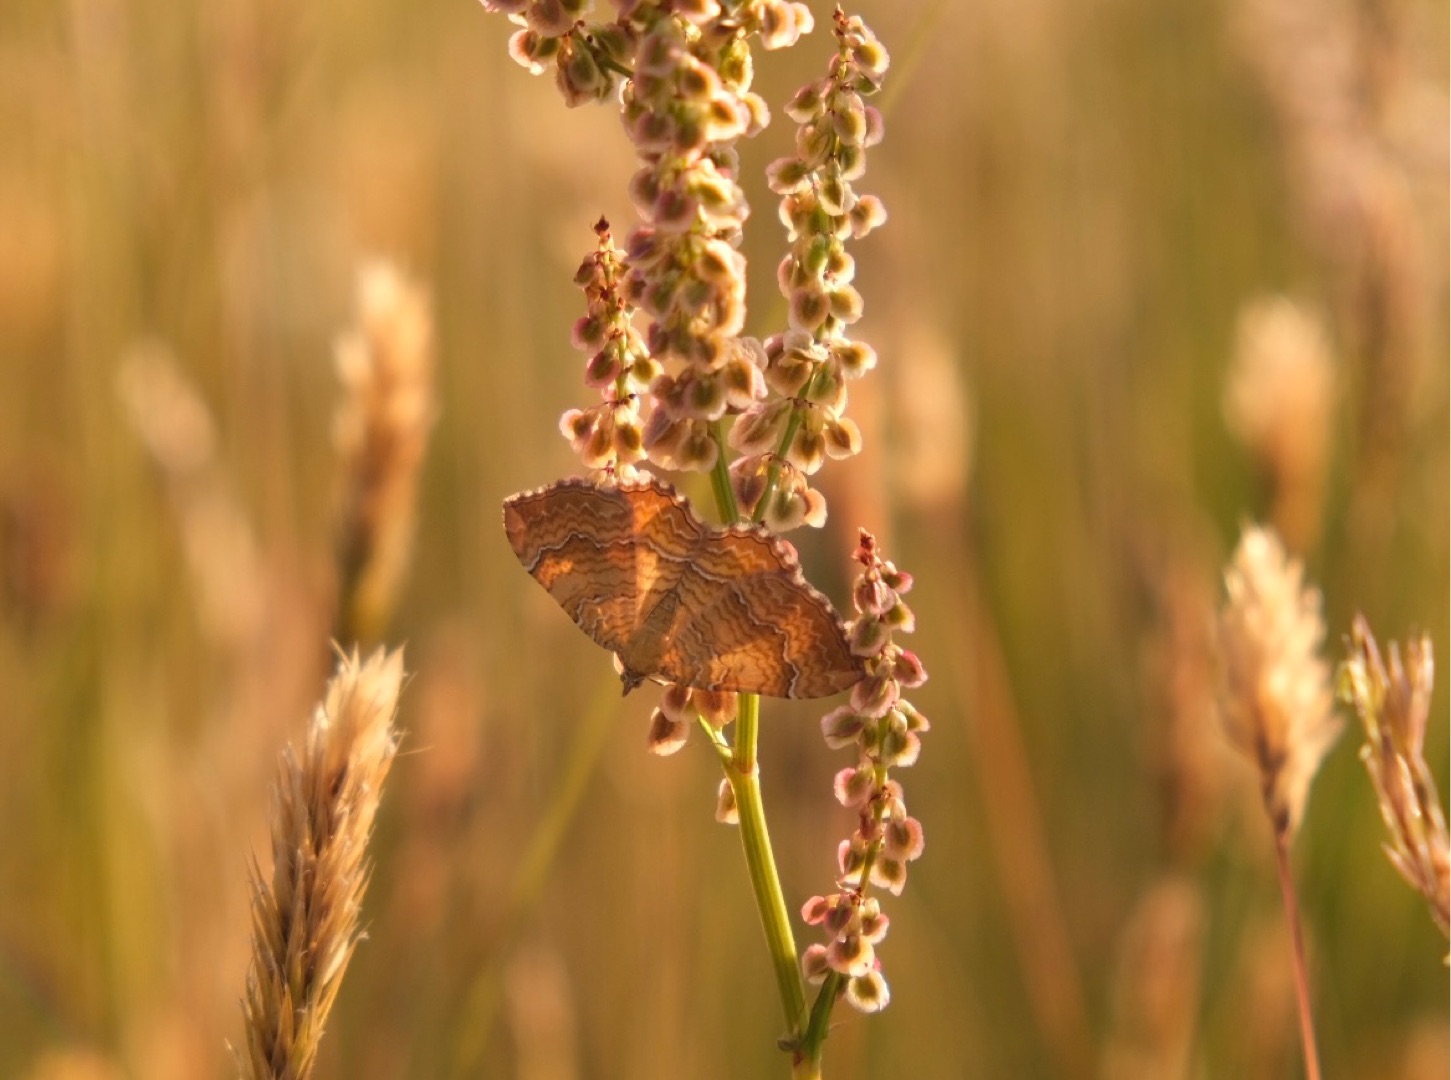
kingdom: Animalia
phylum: Arthropoda
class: Insecta
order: Lepidoptera
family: Geometridae
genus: Camptogramma
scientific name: Camptogramma bilineata
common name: Okkergul bladmåler
